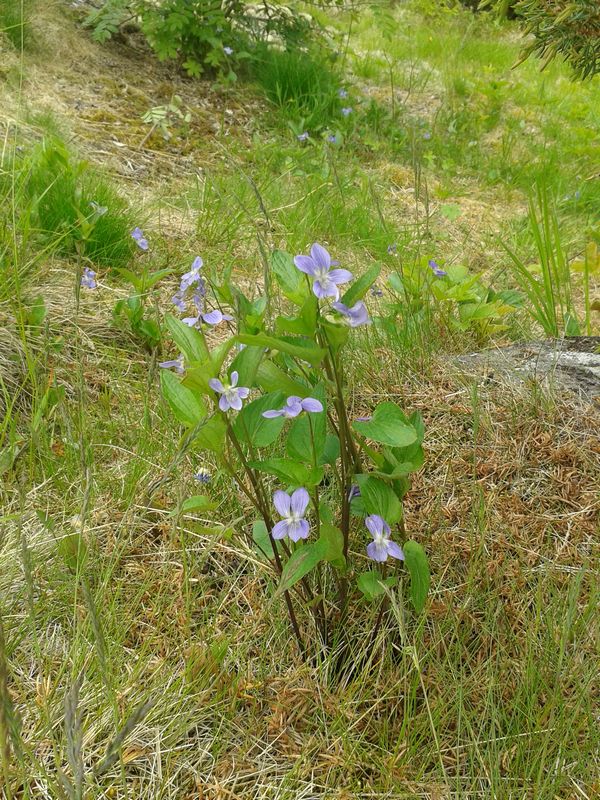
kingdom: Plantae
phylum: Tracheophyta
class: Magnoliopsida
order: Malpighiales
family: Violaceae
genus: Viola
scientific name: Viola canina
